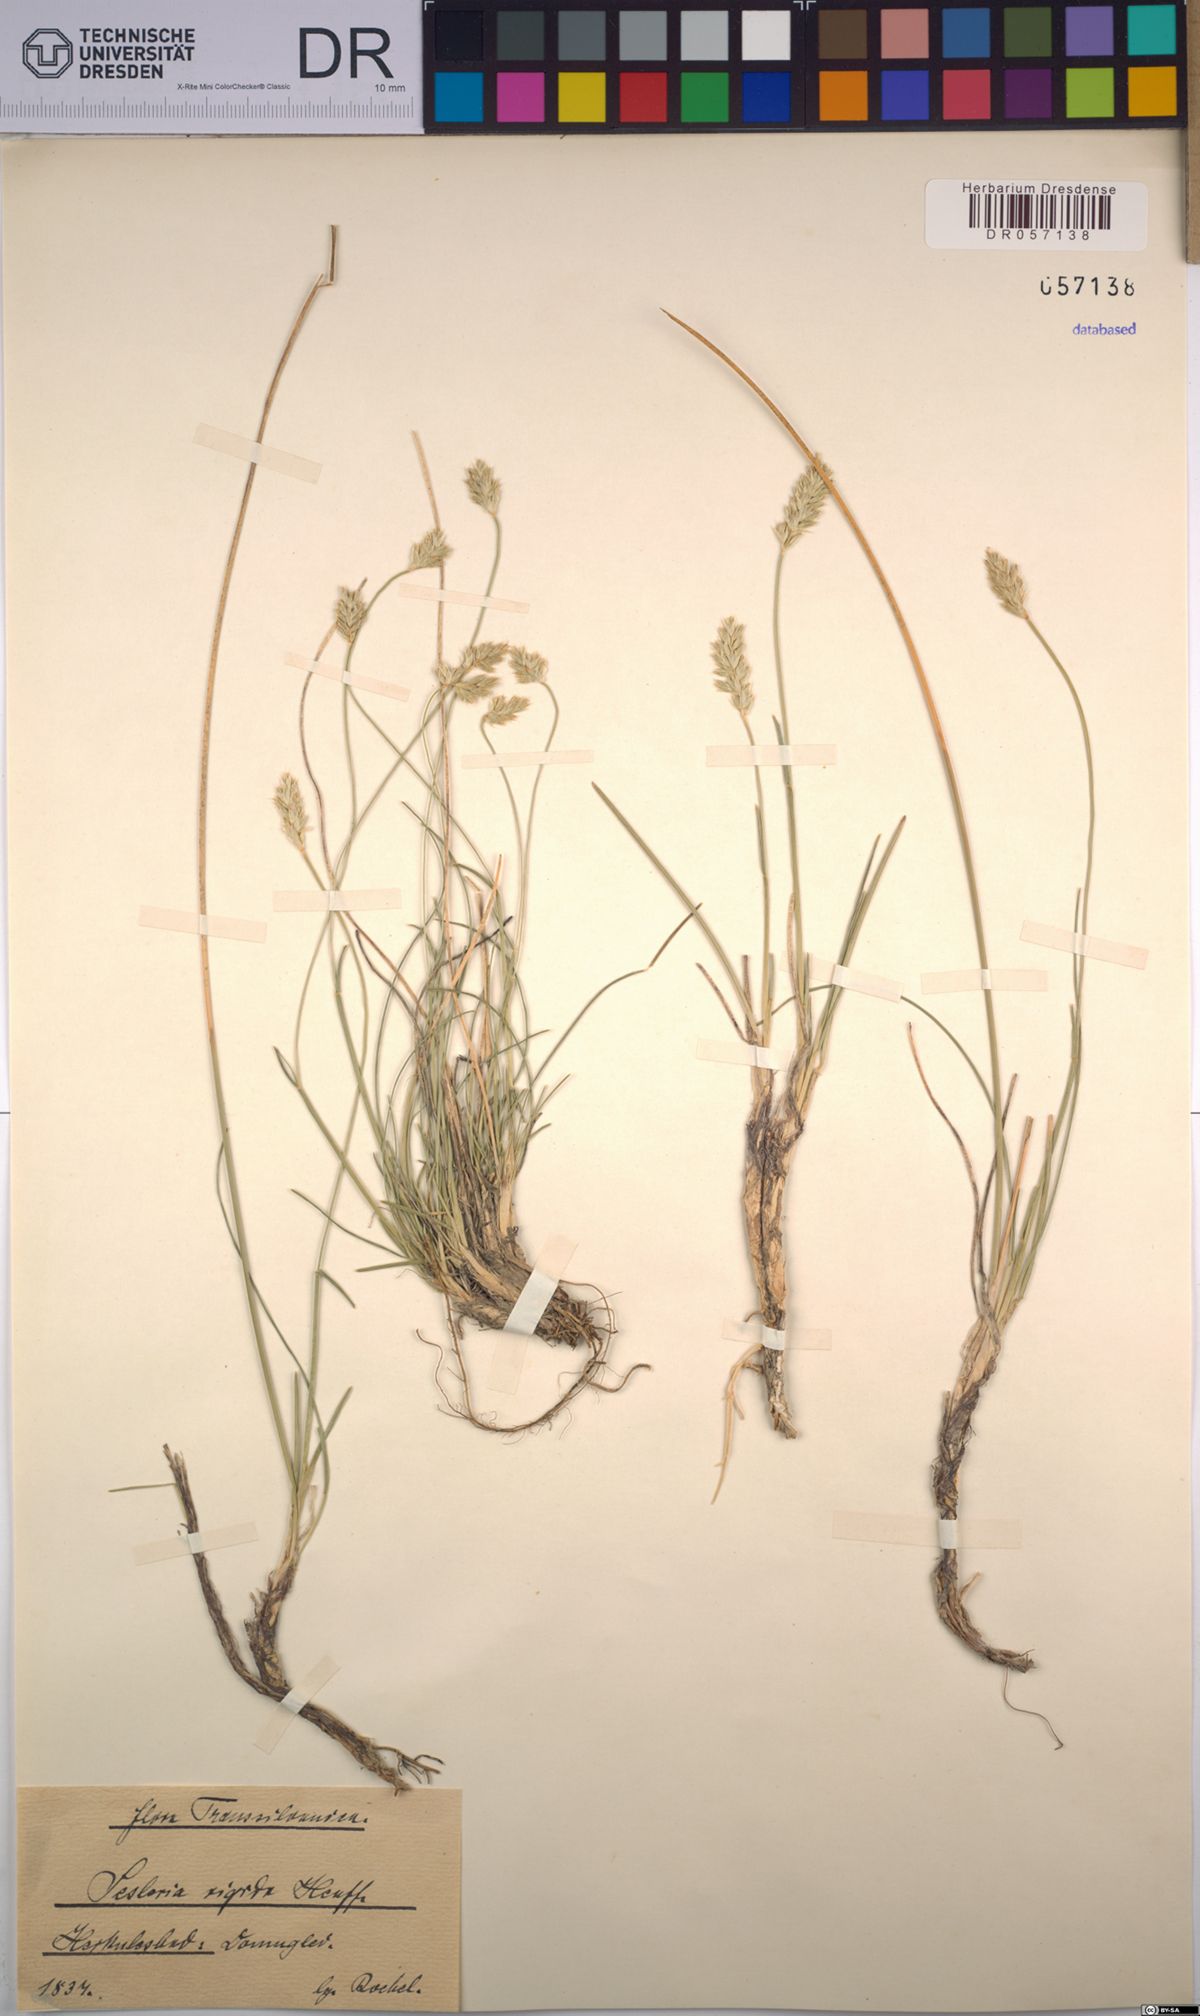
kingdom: Plantae
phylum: Tracheophyta
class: Liliopsida
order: Poales
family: Poaceae
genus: Sesleria
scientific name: Sesleria rigida
